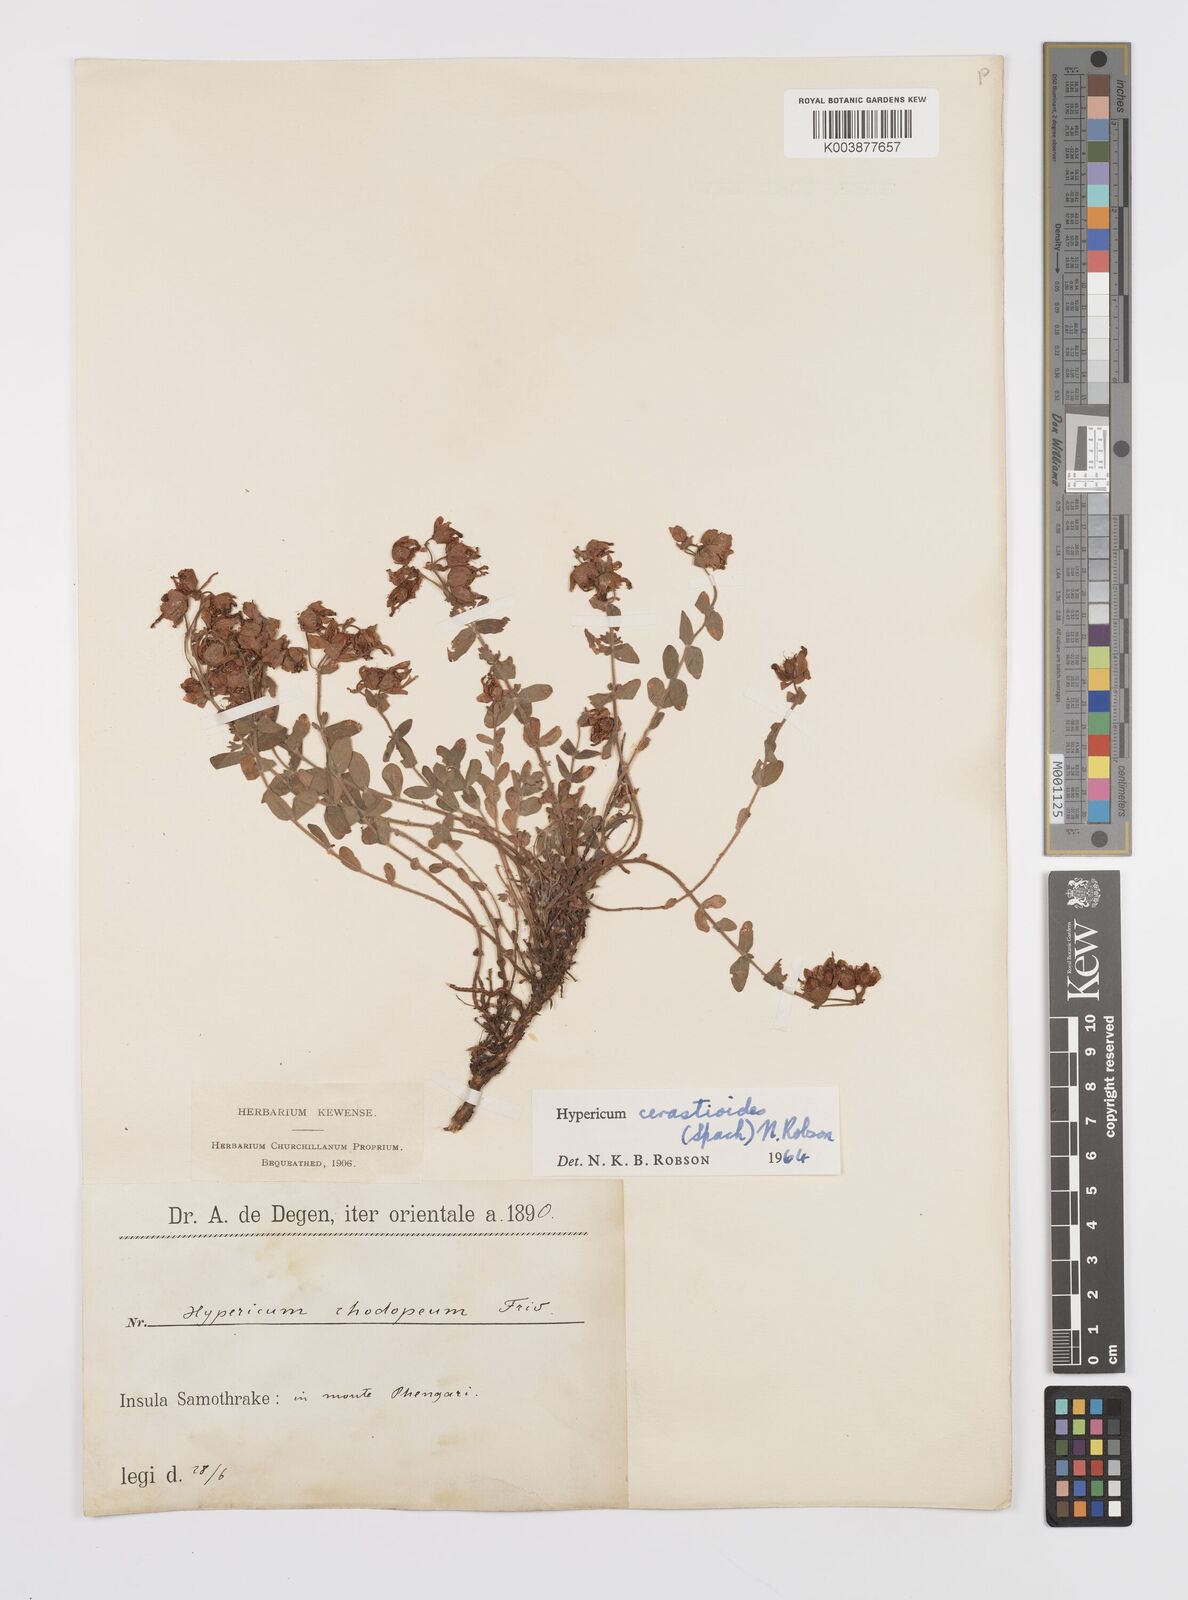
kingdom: Plantae
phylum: Tracheophyta
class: Magnoliopsida
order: Malpighiales
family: Hypericaceae
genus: Hypericum
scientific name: Hypericum cerastoides
